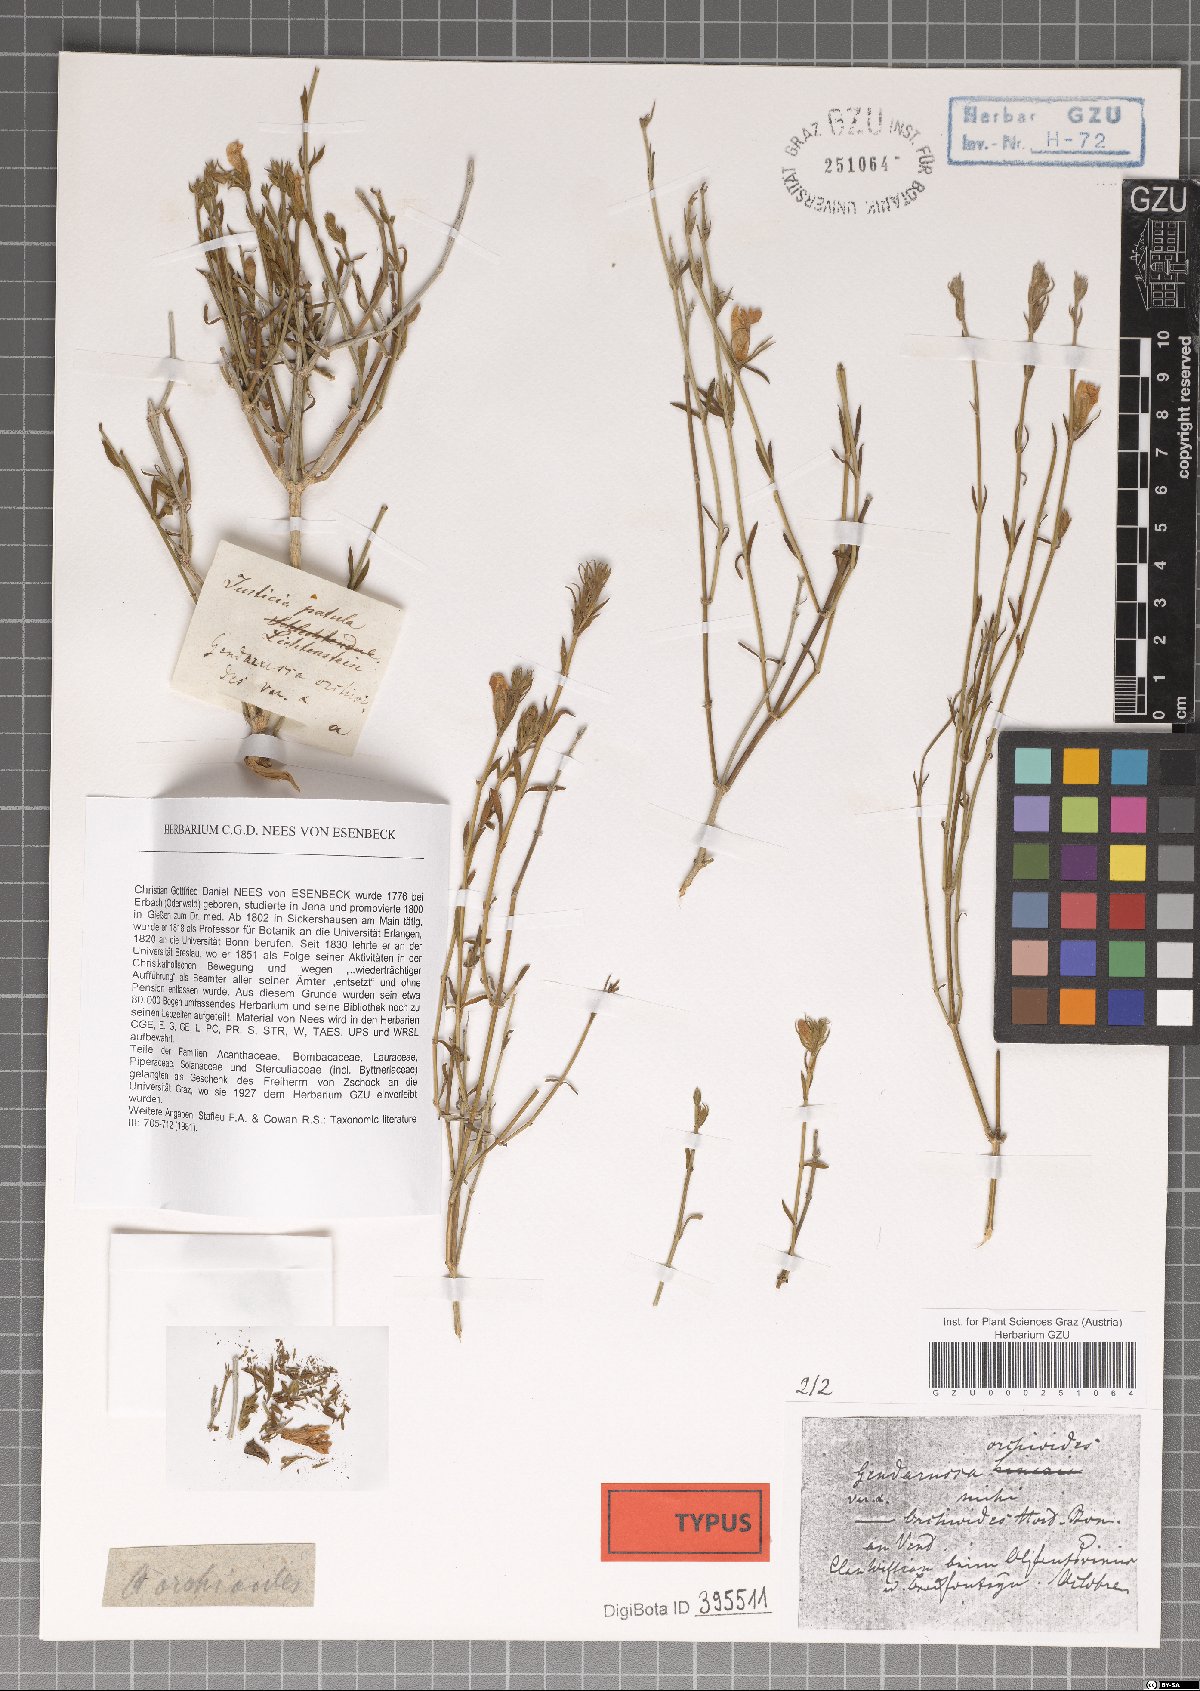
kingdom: Plantae
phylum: Tracheophyta
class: Magnoliopsida
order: Lamiales
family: Acanthaceae
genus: Justicia
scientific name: Justicia orchioides
